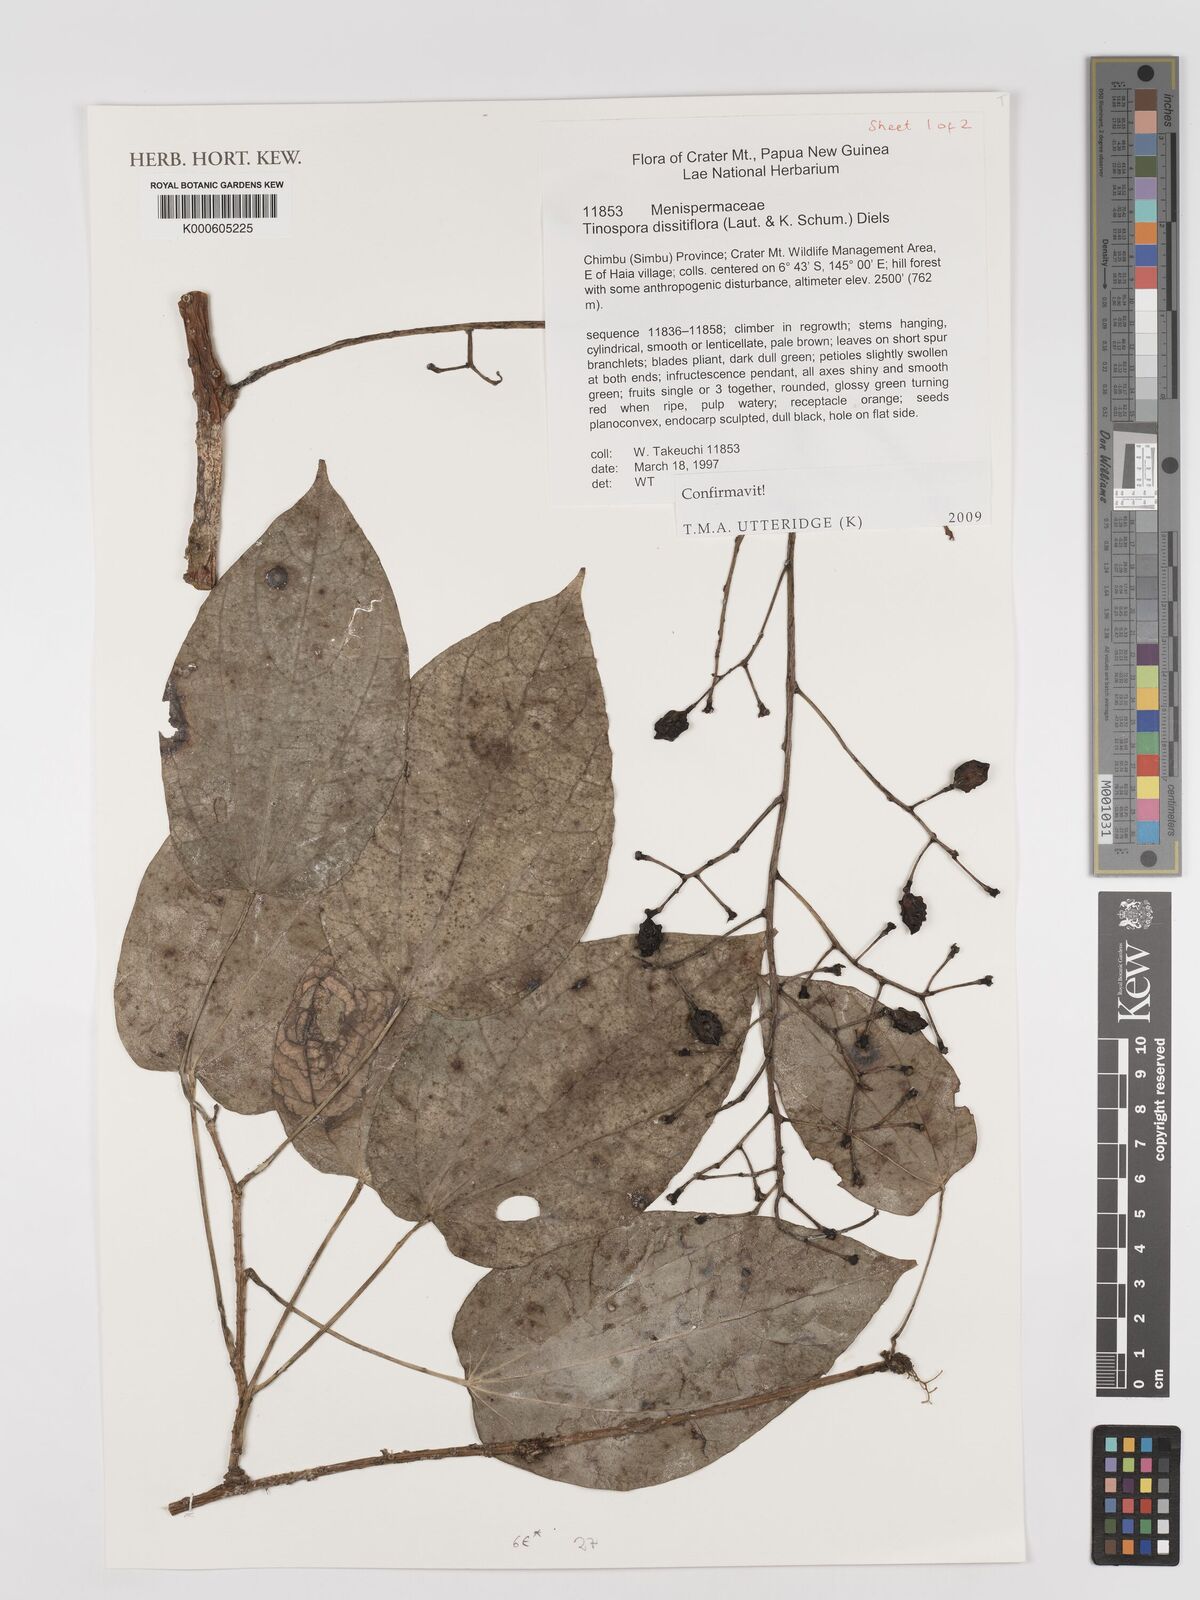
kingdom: Plantae
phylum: Tracheophyta
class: Magnoliopsida
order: Ranunculales
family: Menispermaceae
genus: Tinospora
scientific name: Tinospora dissitiflora
